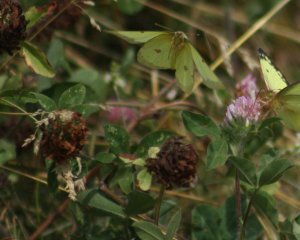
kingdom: Animalia
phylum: Arthropoda
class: Insecta
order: Lepidoptera
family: Pieridae
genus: Colias
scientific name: Colias philodice
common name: Clouded Sulphur
